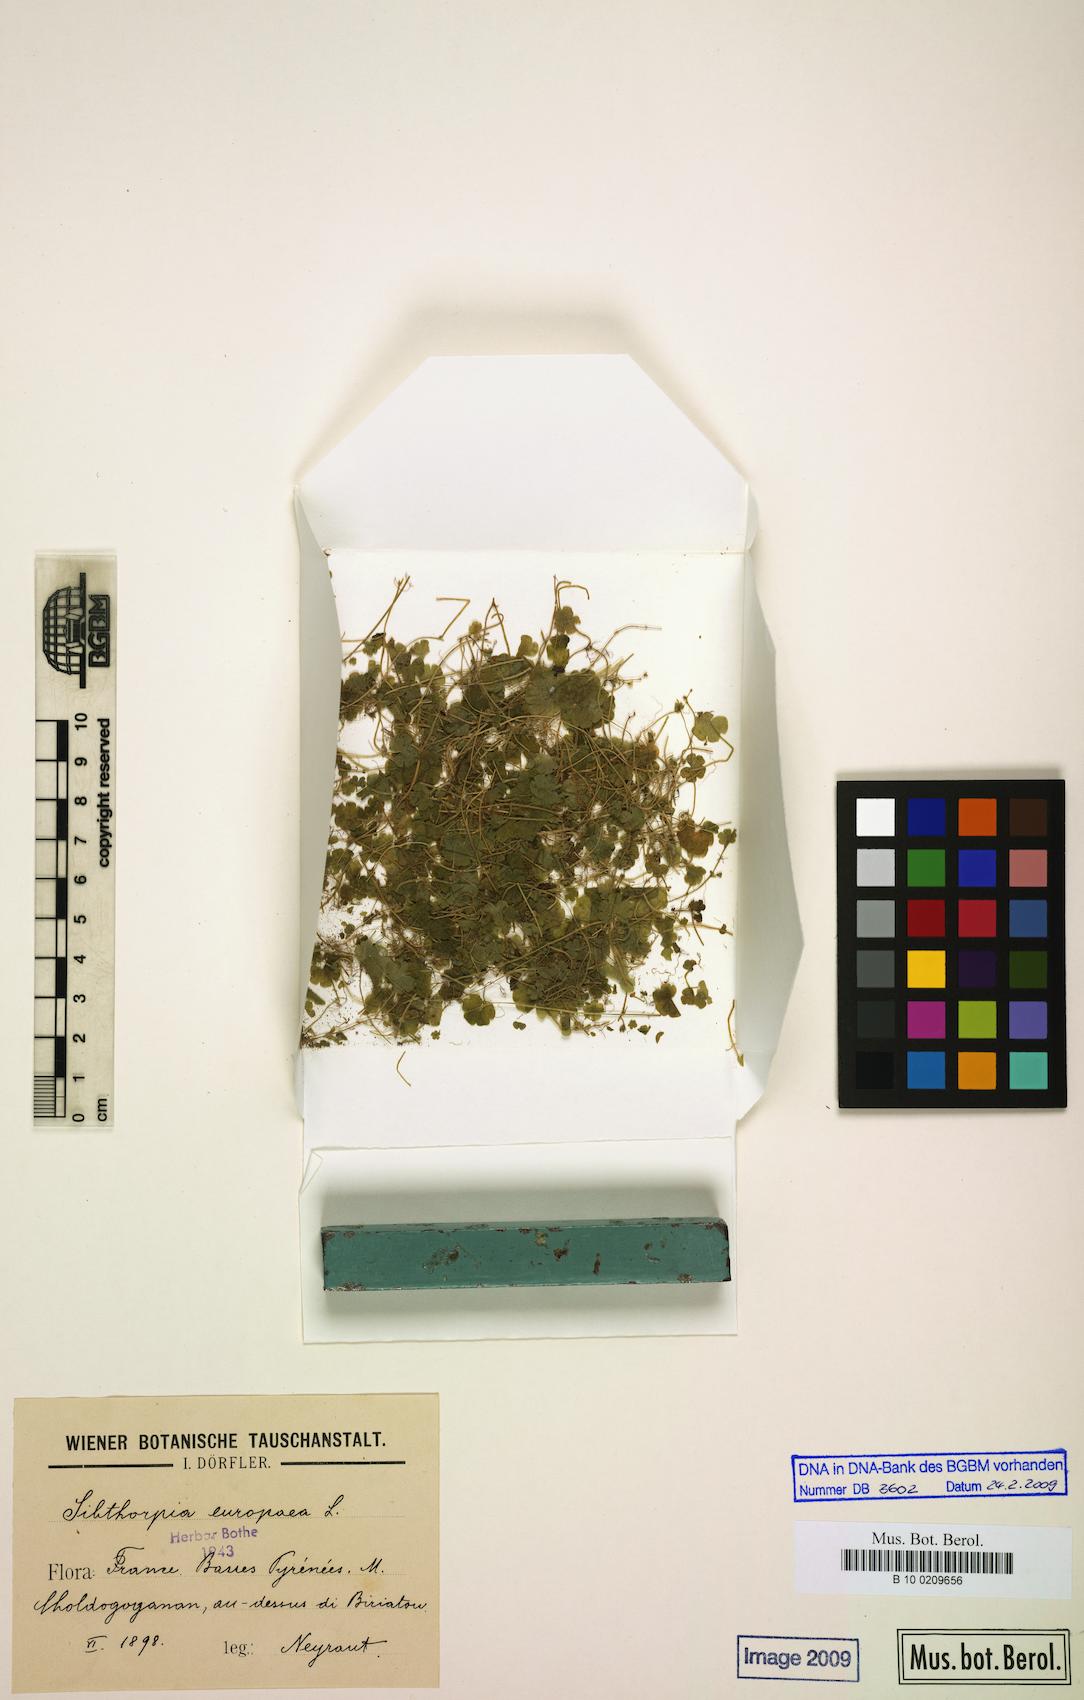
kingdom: Plantae
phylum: Tracheophyta
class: Magnoliopsida
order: Lamiales
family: Plantaginaceae
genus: Sibthorpia
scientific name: Sibthorpia europaea
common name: Cornish moneywort
